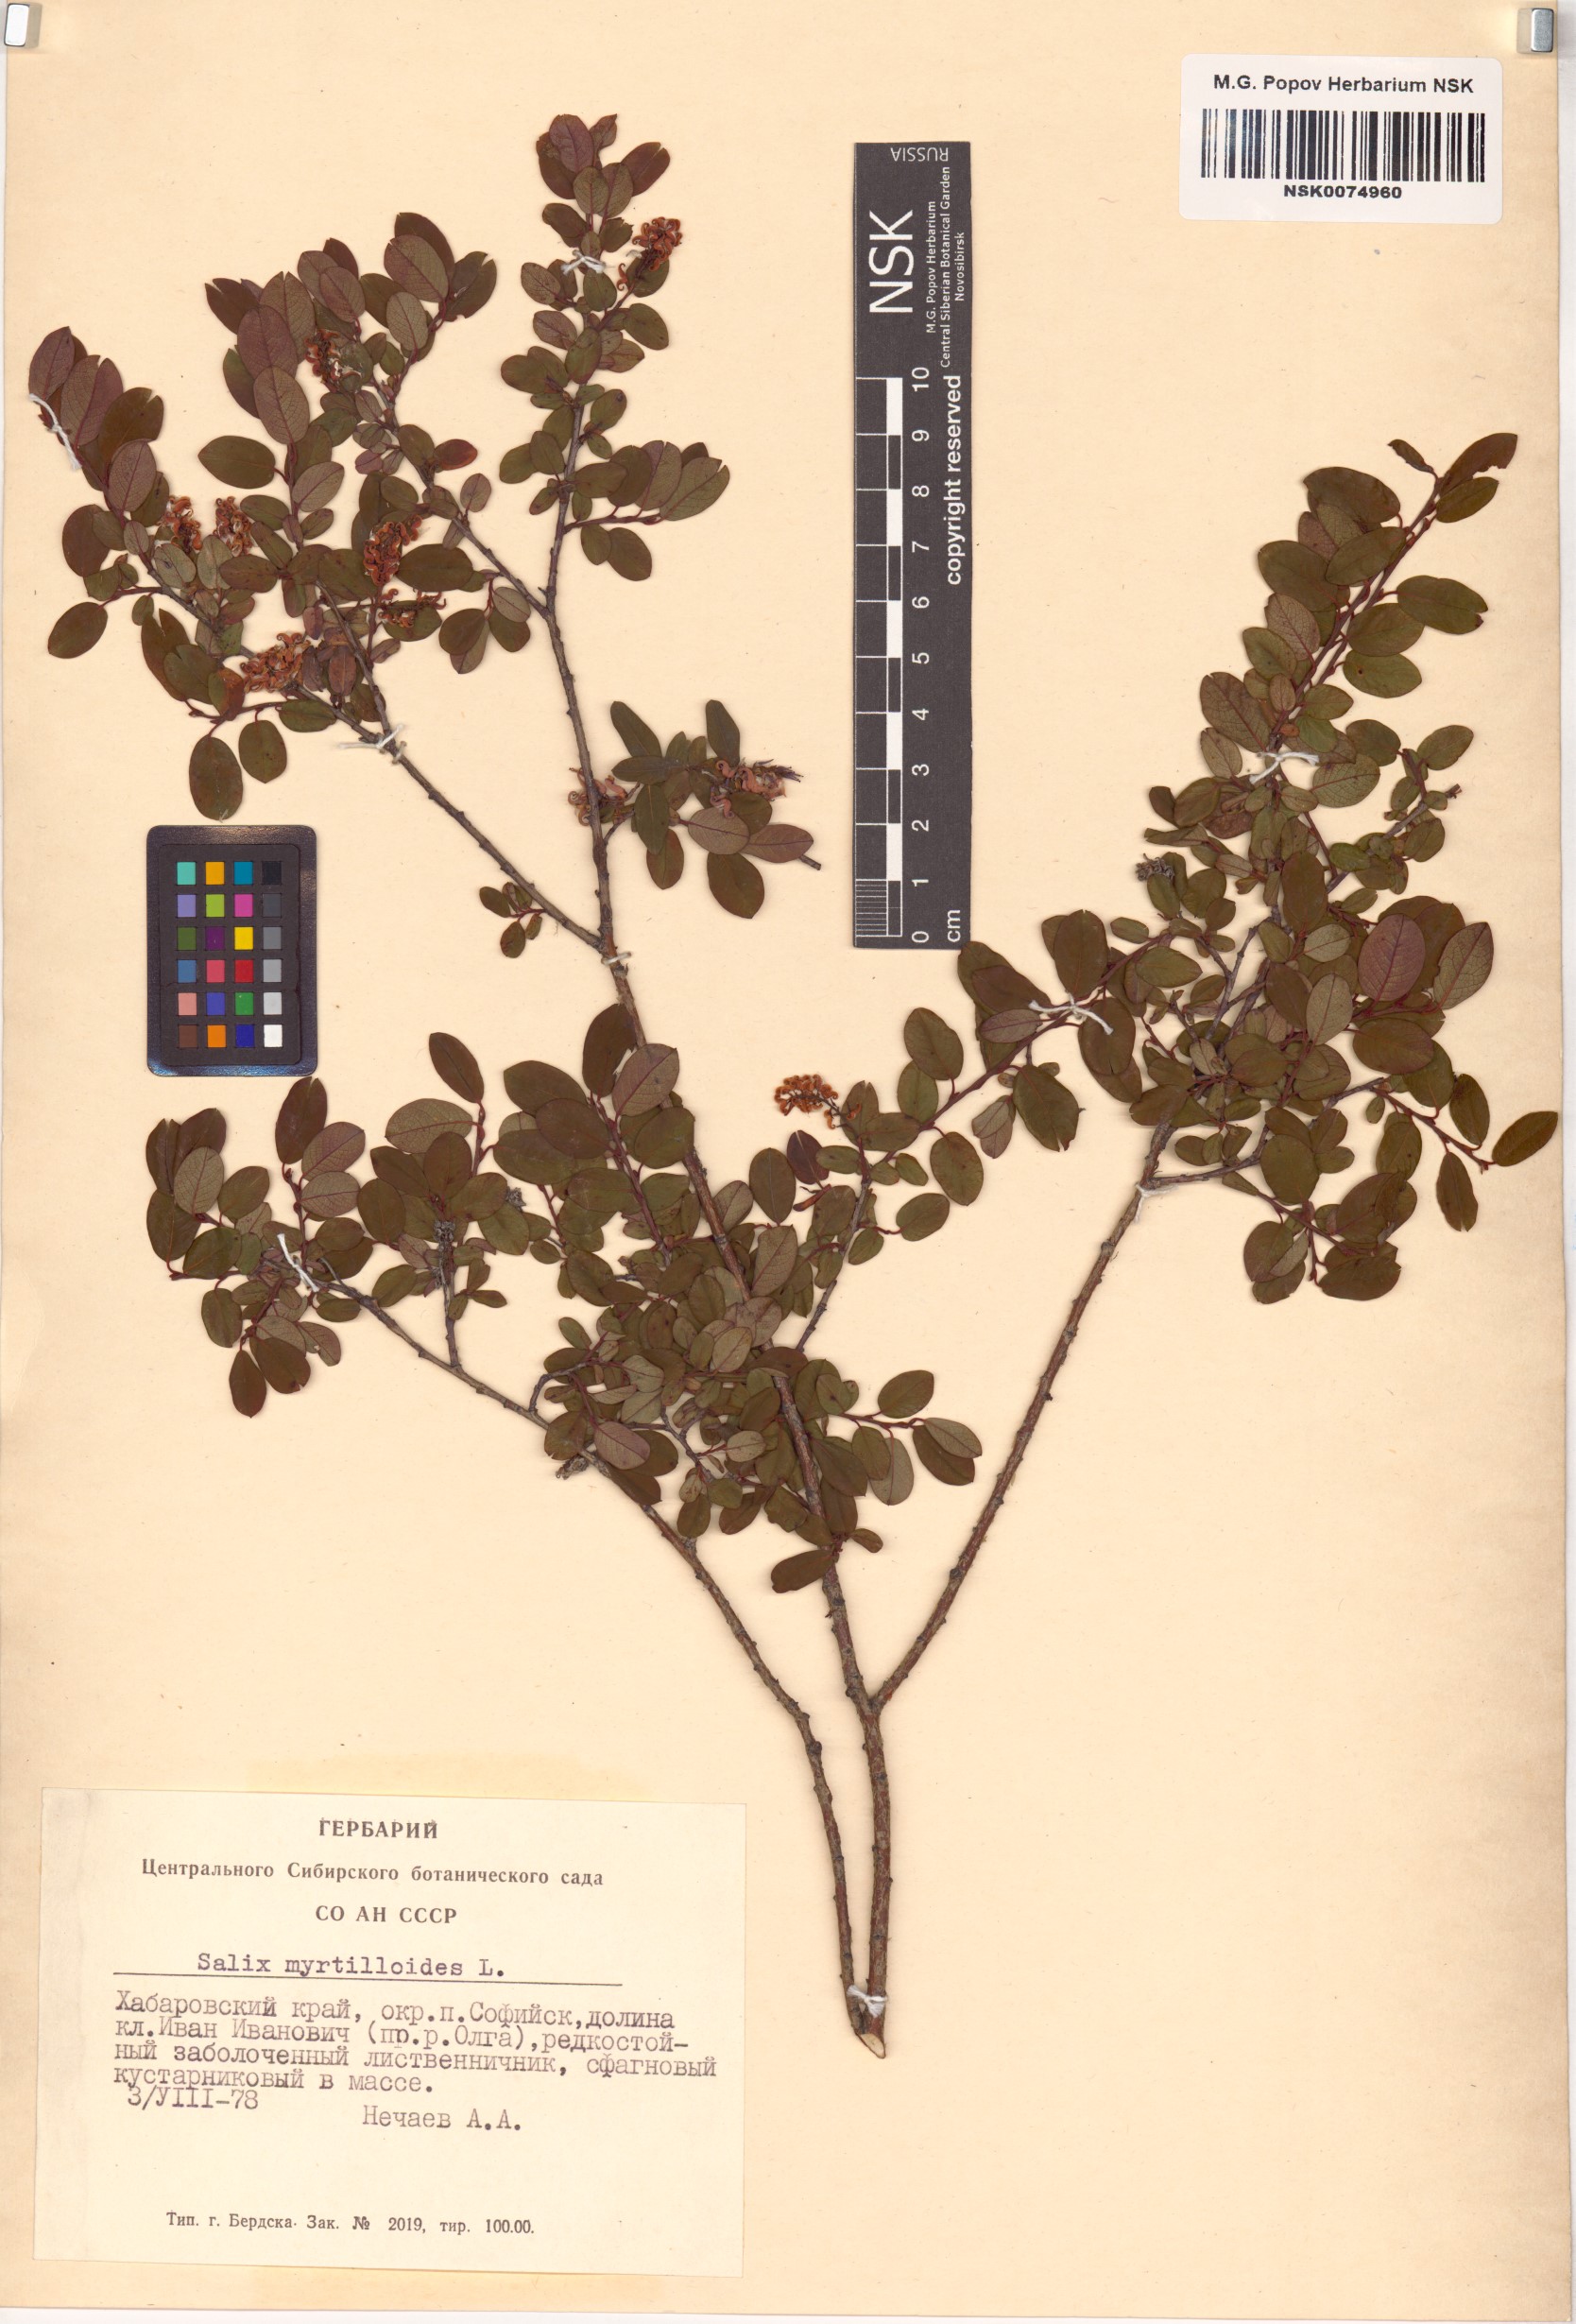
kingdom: Plantae
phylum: Tracheophyta
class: Magnoliopsida
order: Malpighiales
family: Salicaceae
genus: Salix
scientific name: Salix myrtilloides
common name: Myrtle-leaved willow
